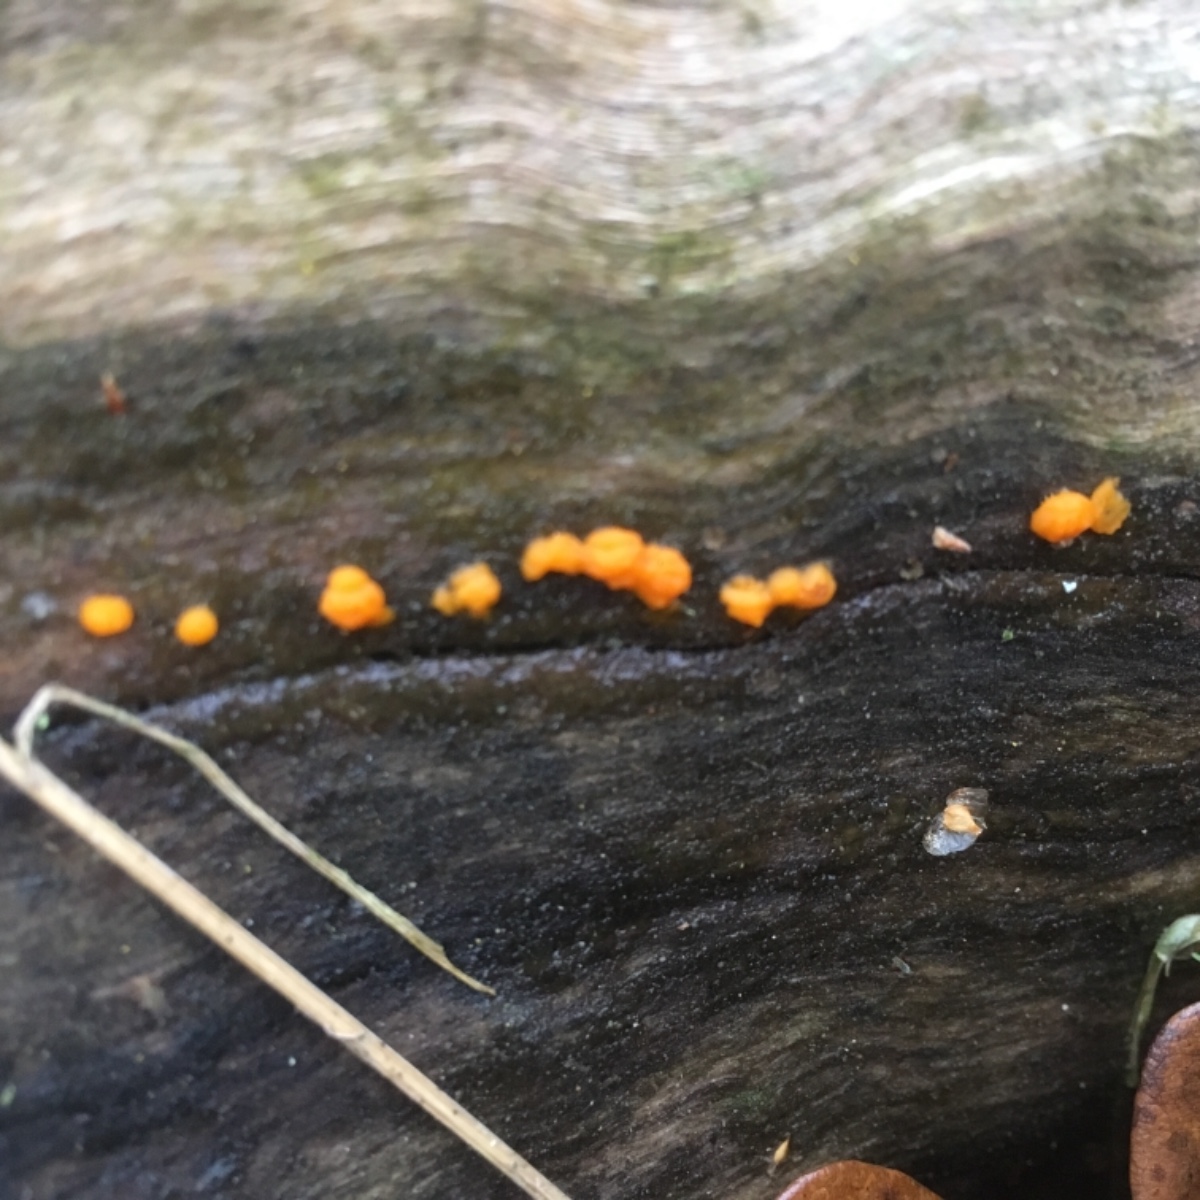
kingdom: Fungi
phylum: Basidiomycota
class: Dacrymycetes
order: Dacrymycetales
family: Dacrymycetaceae
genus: Dacrymyces
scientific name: Dacrymyces stillatus
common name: almindelig tåresvamp
